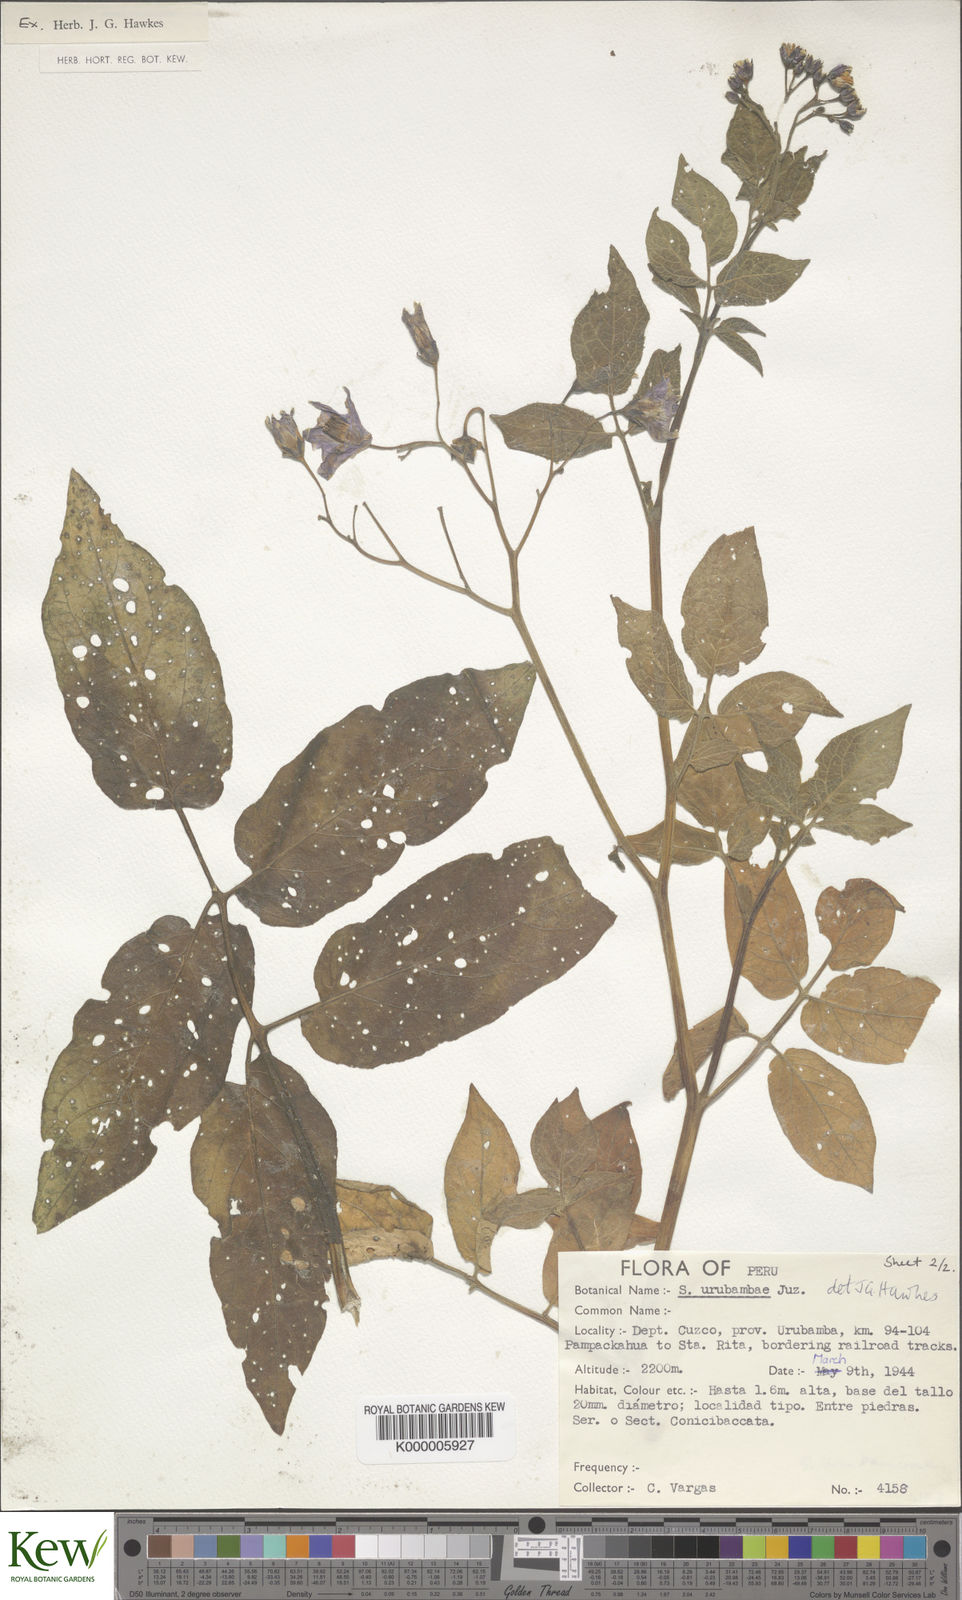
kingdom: Plantae
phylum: Tracheophyta
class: Magnoliopsida
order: Solanales
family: Solanaceae
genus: Solanum
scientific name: Solanum violaceimarmoratum
